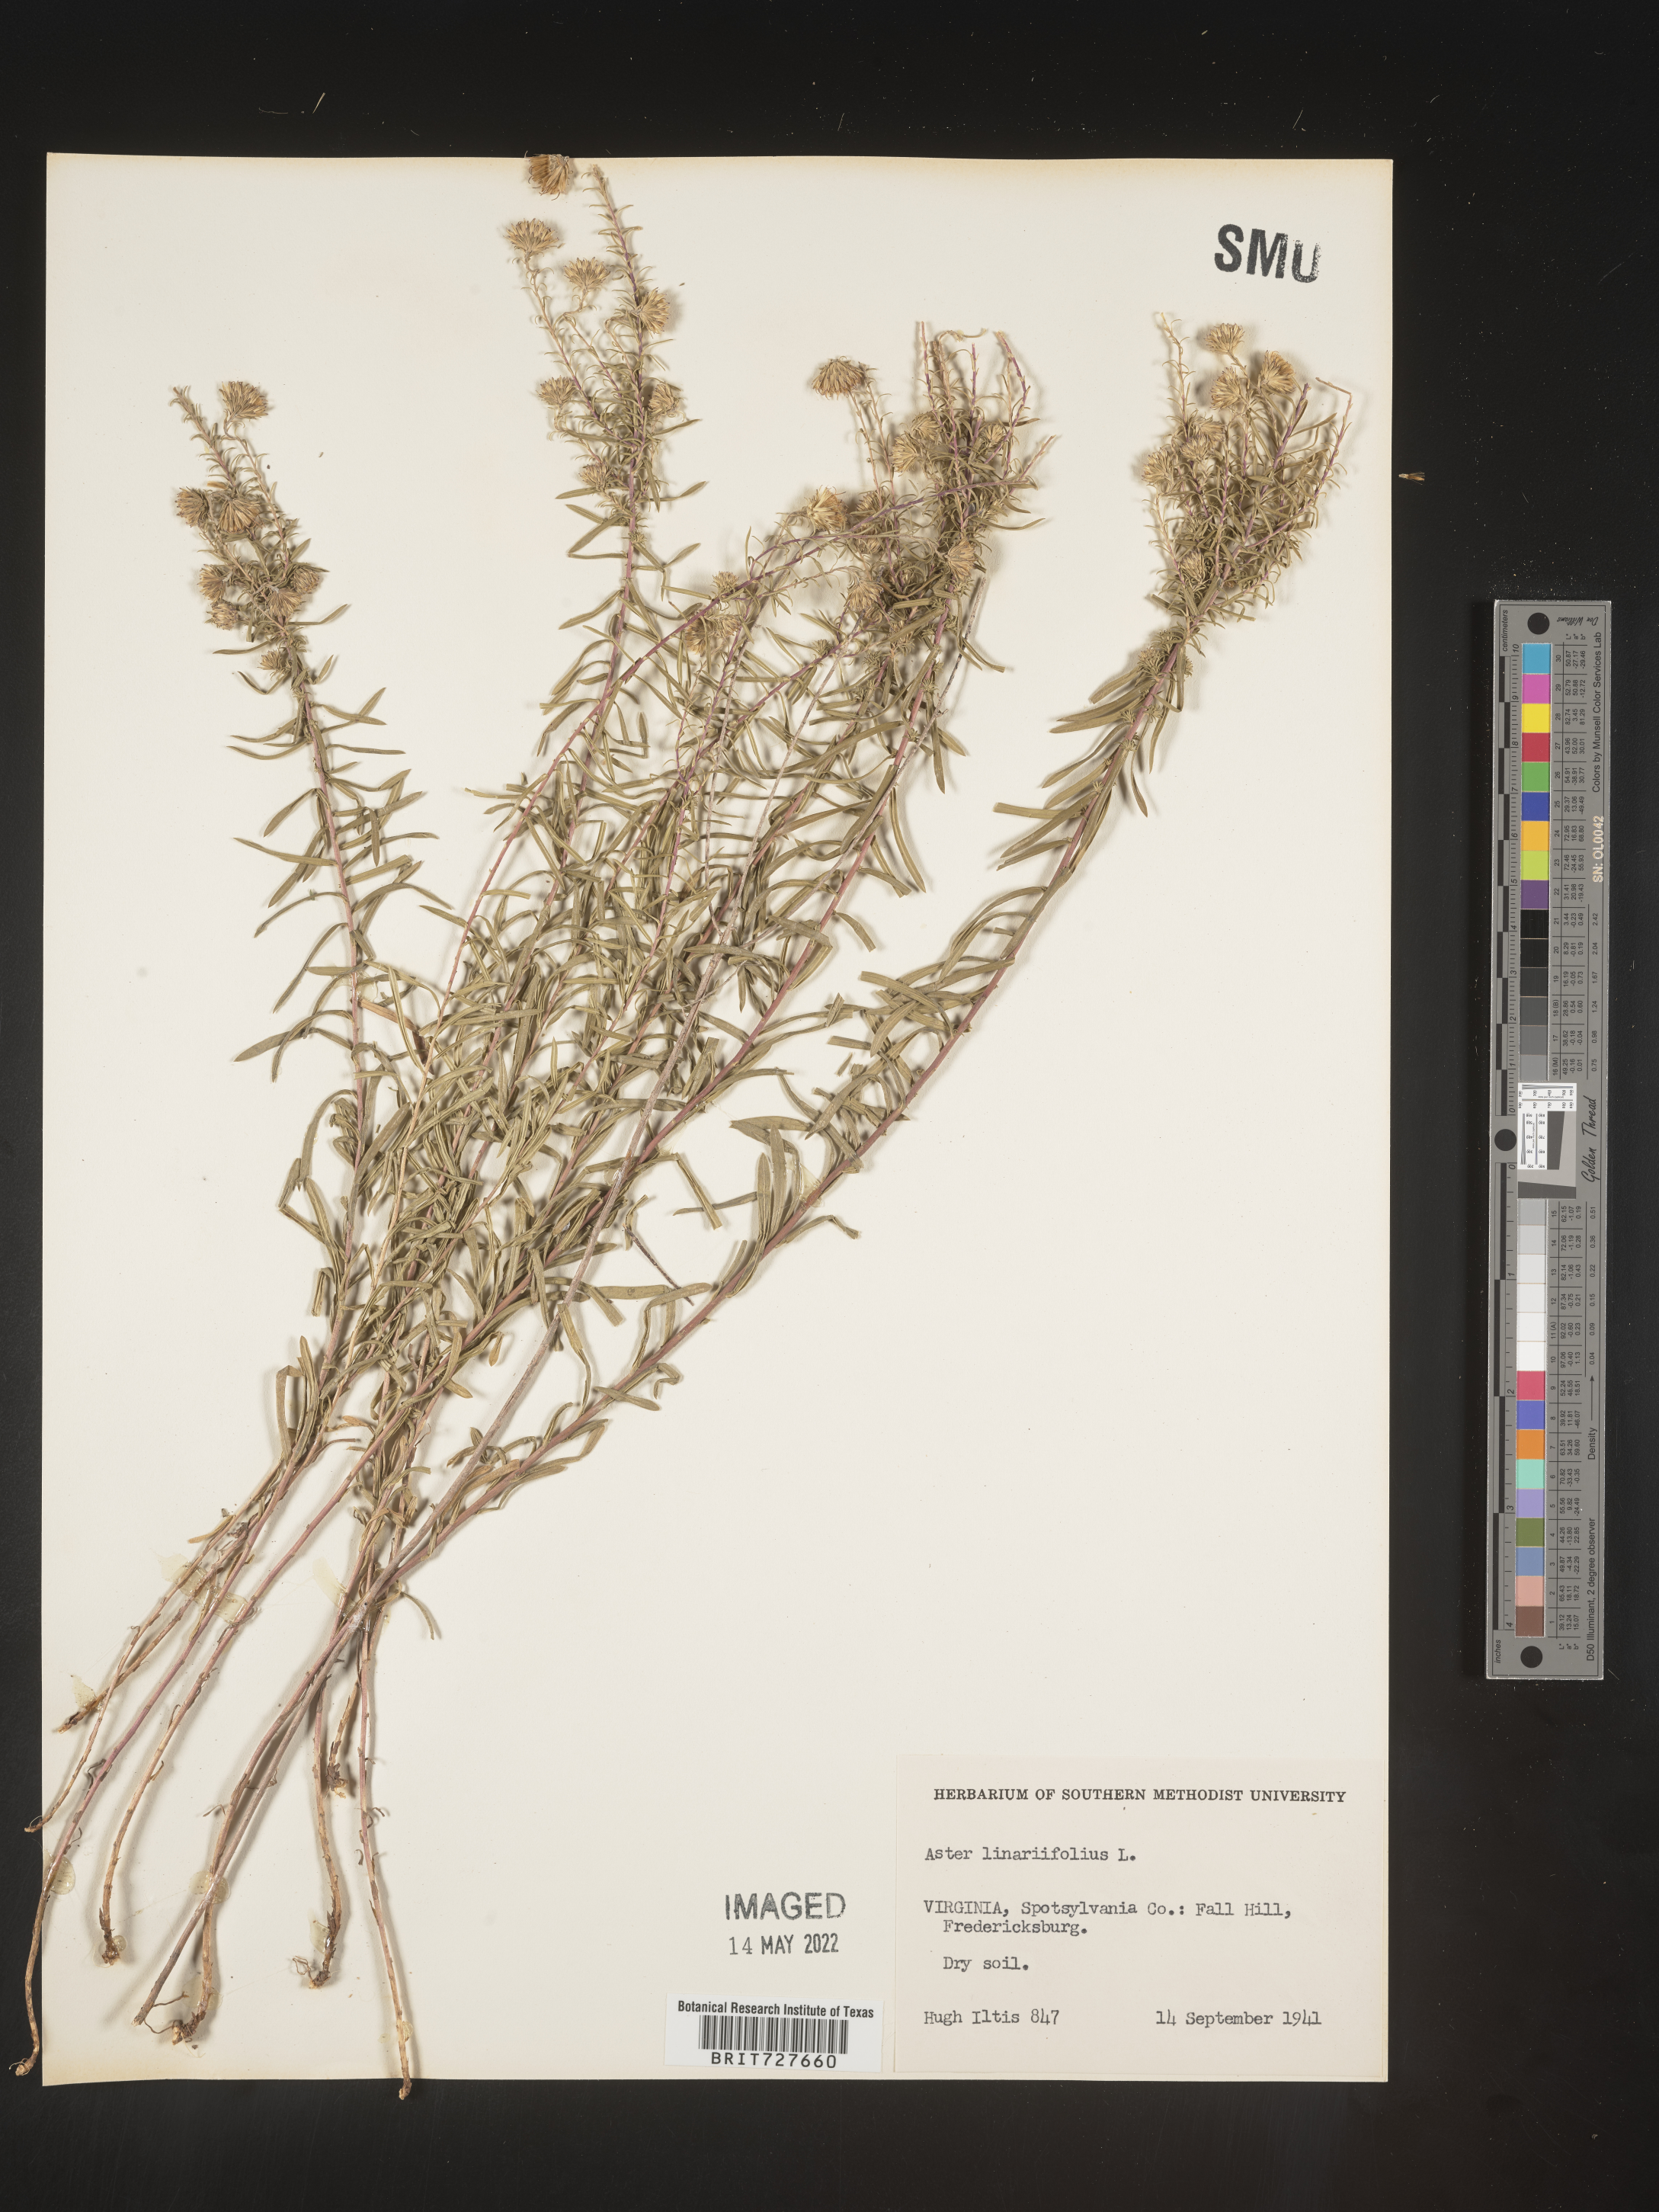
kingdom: Plantae
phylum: Tracheophyta
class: Magnoliopsida
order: Asterales
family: Asteraceae
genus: Ionactis
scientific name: Ionactis linariifolia
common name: Flax-leaf aster
